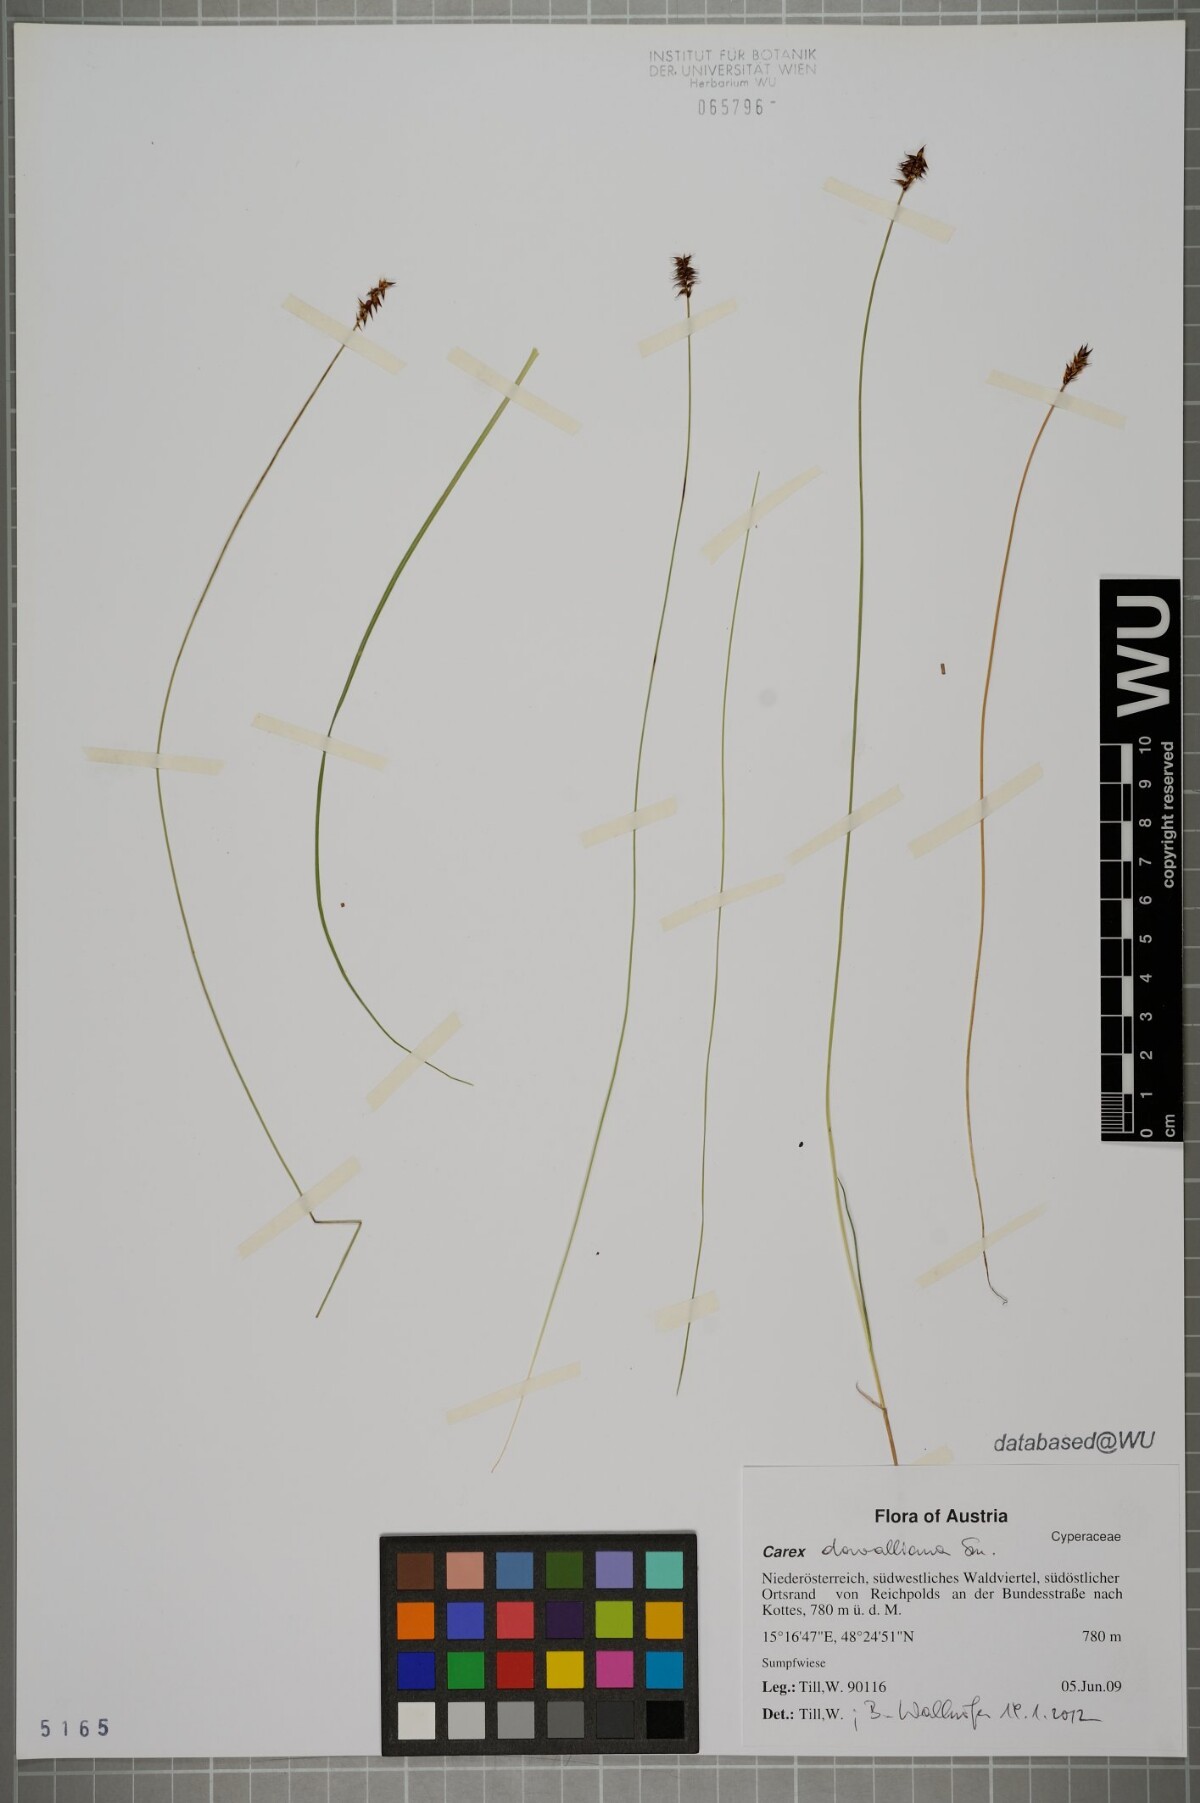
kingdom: Plantae
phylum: Tracheophyta
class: Liliopsida
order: Poales
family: Cyperaceae
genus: Carex
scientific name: Carex davalliana
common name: Davall's sedge
